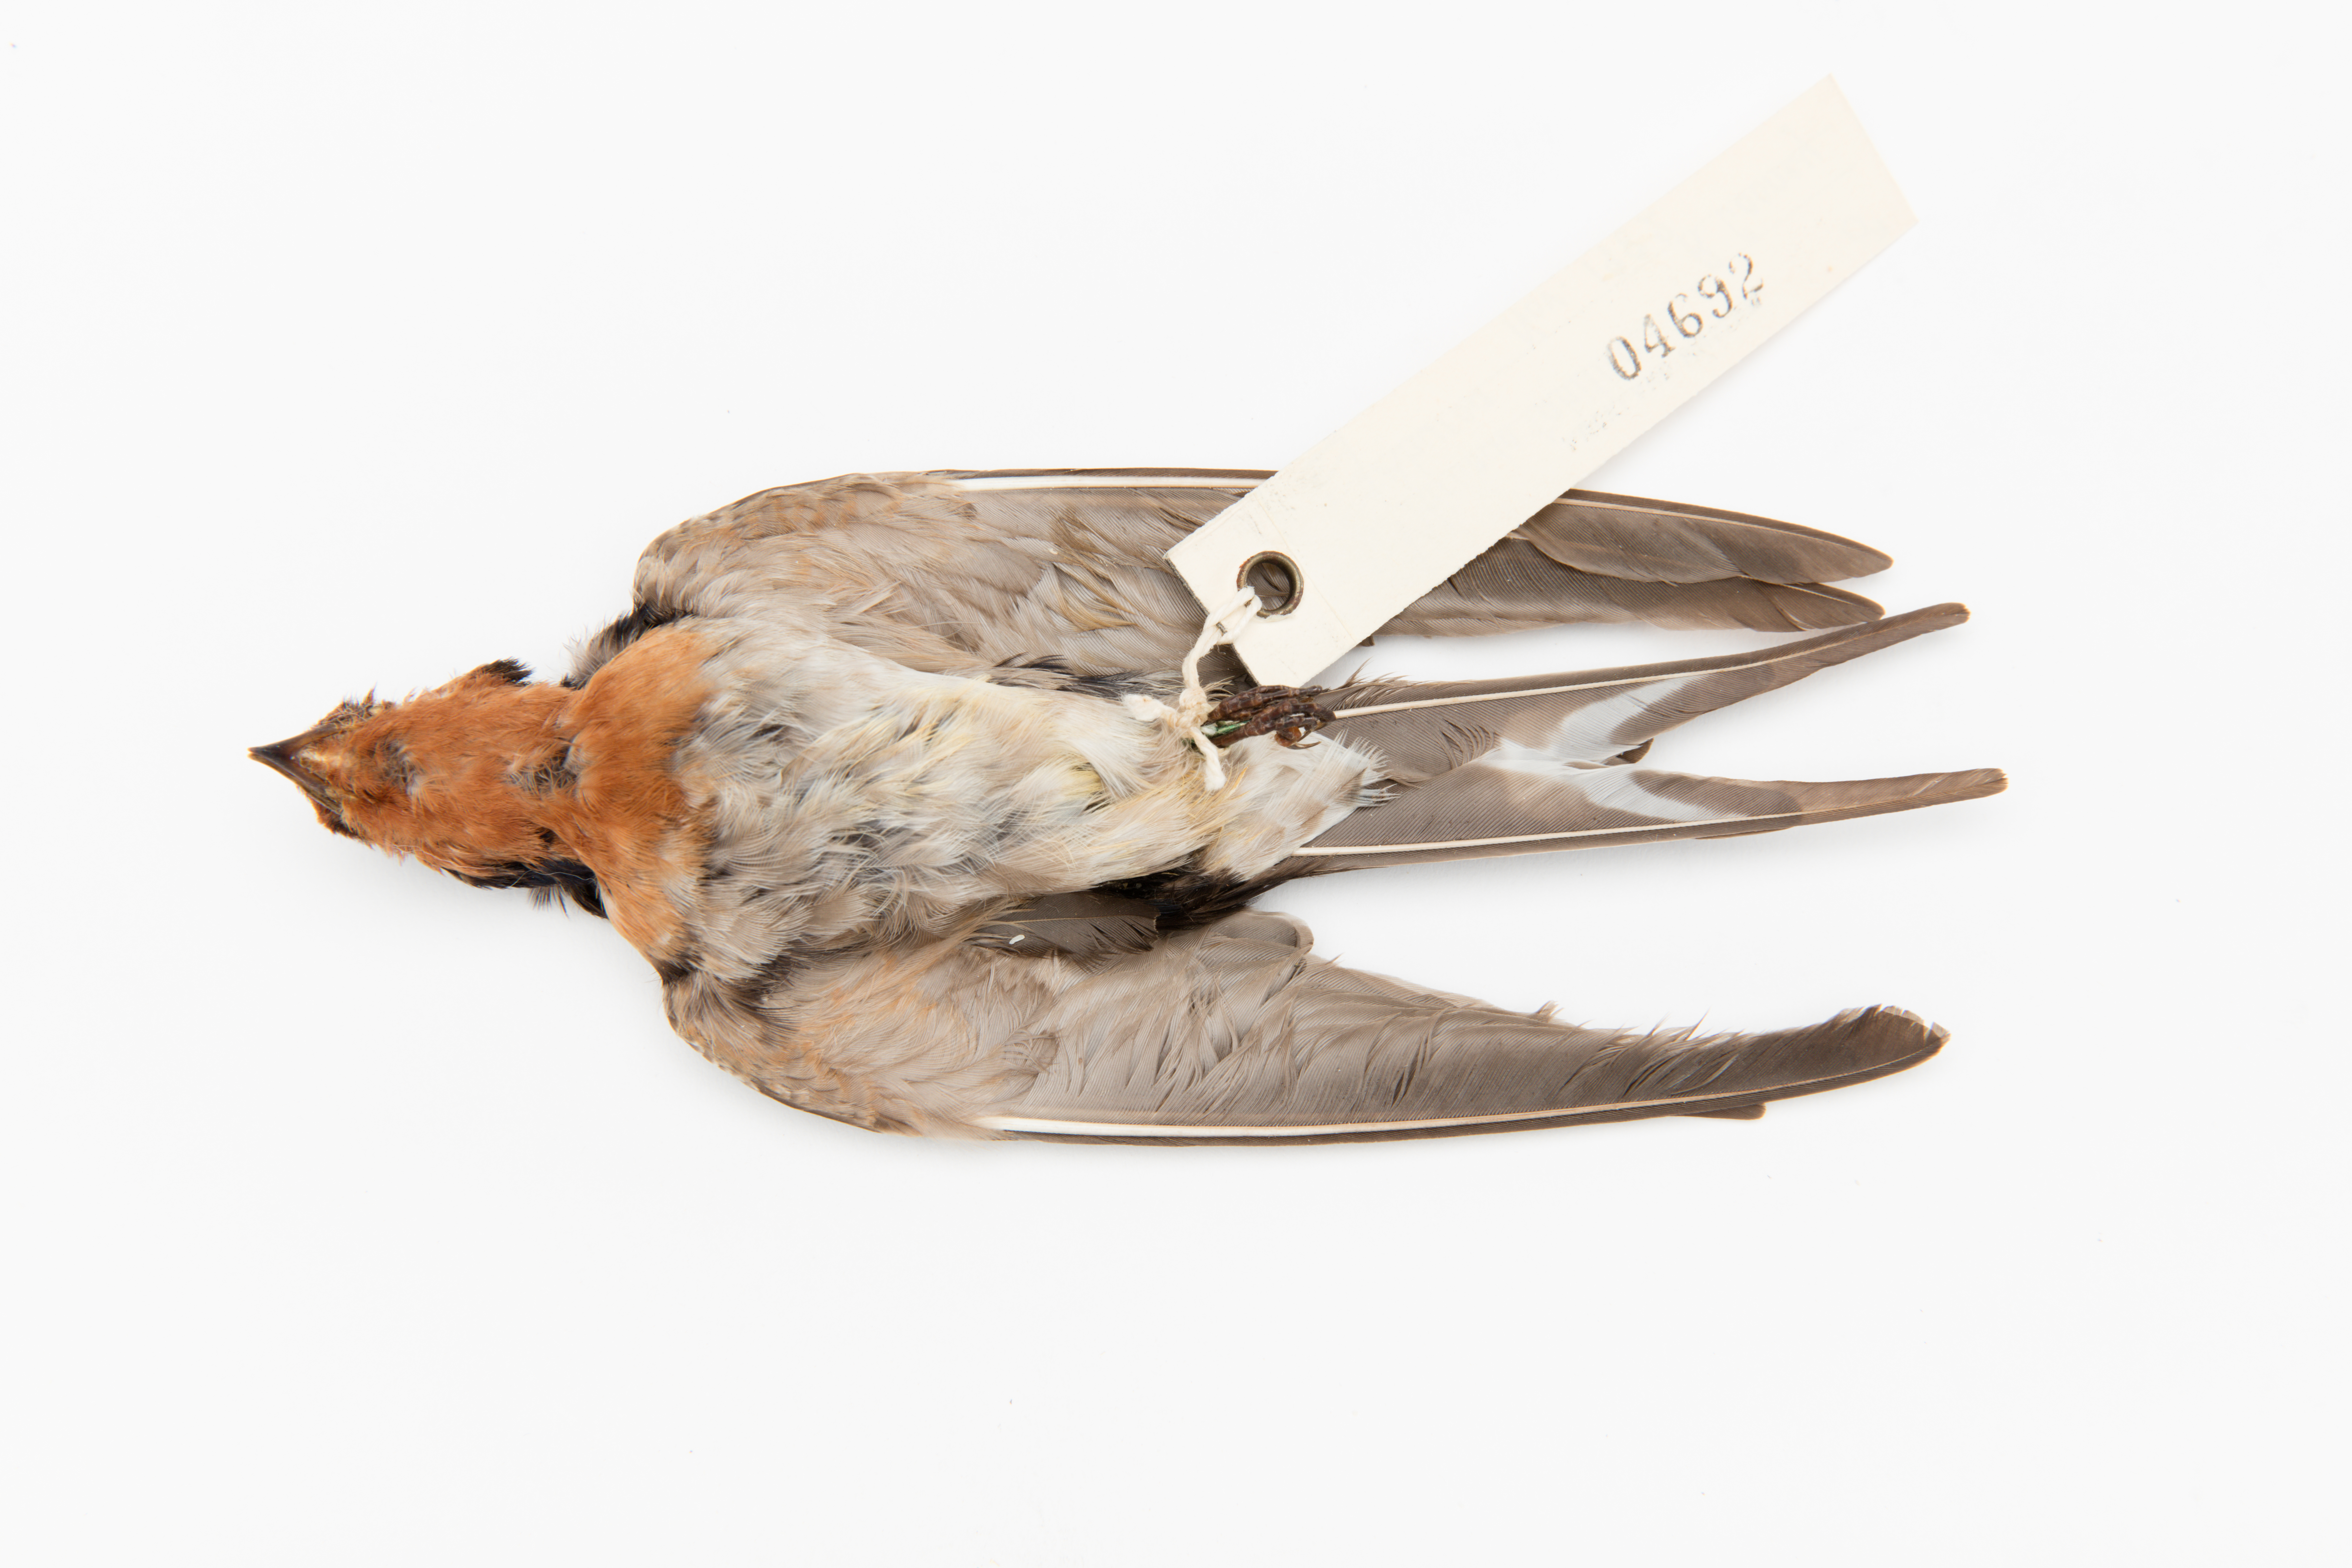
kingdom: Animalia
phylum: Chordata
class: Aves
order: Passeriformes
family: Hirundinidae
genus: Hirundo
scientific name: Hirundo neoxena
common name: Welcome swallow
